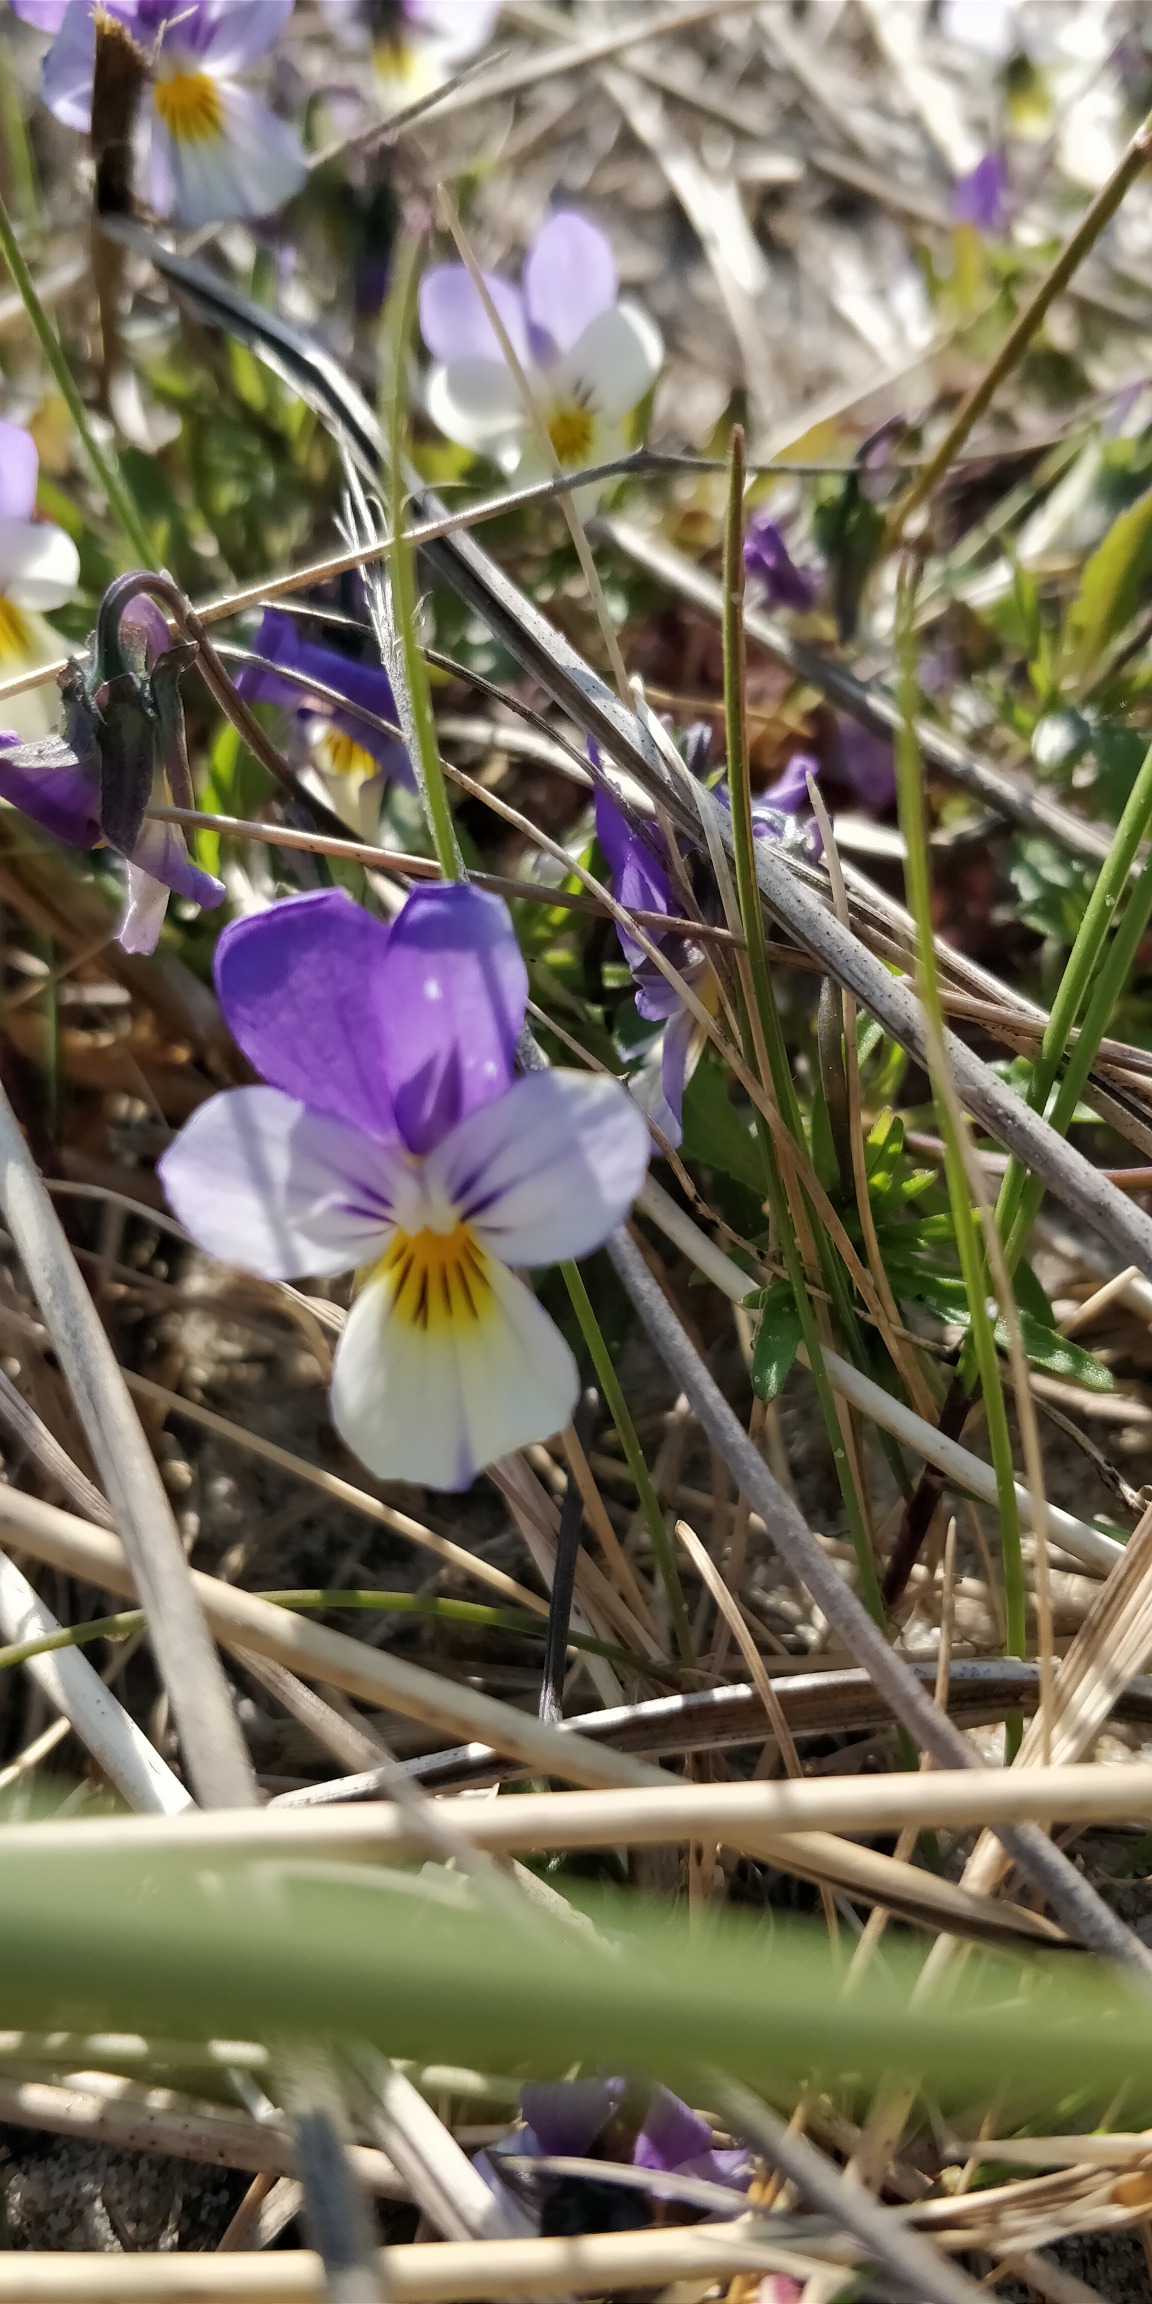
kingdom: Plantae
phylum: Tracheophyta
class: Magnoliopsida
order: Malpighiales
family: Violaceae
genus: Viola
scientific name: Viola tricolor
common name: Stedmoderblomst
